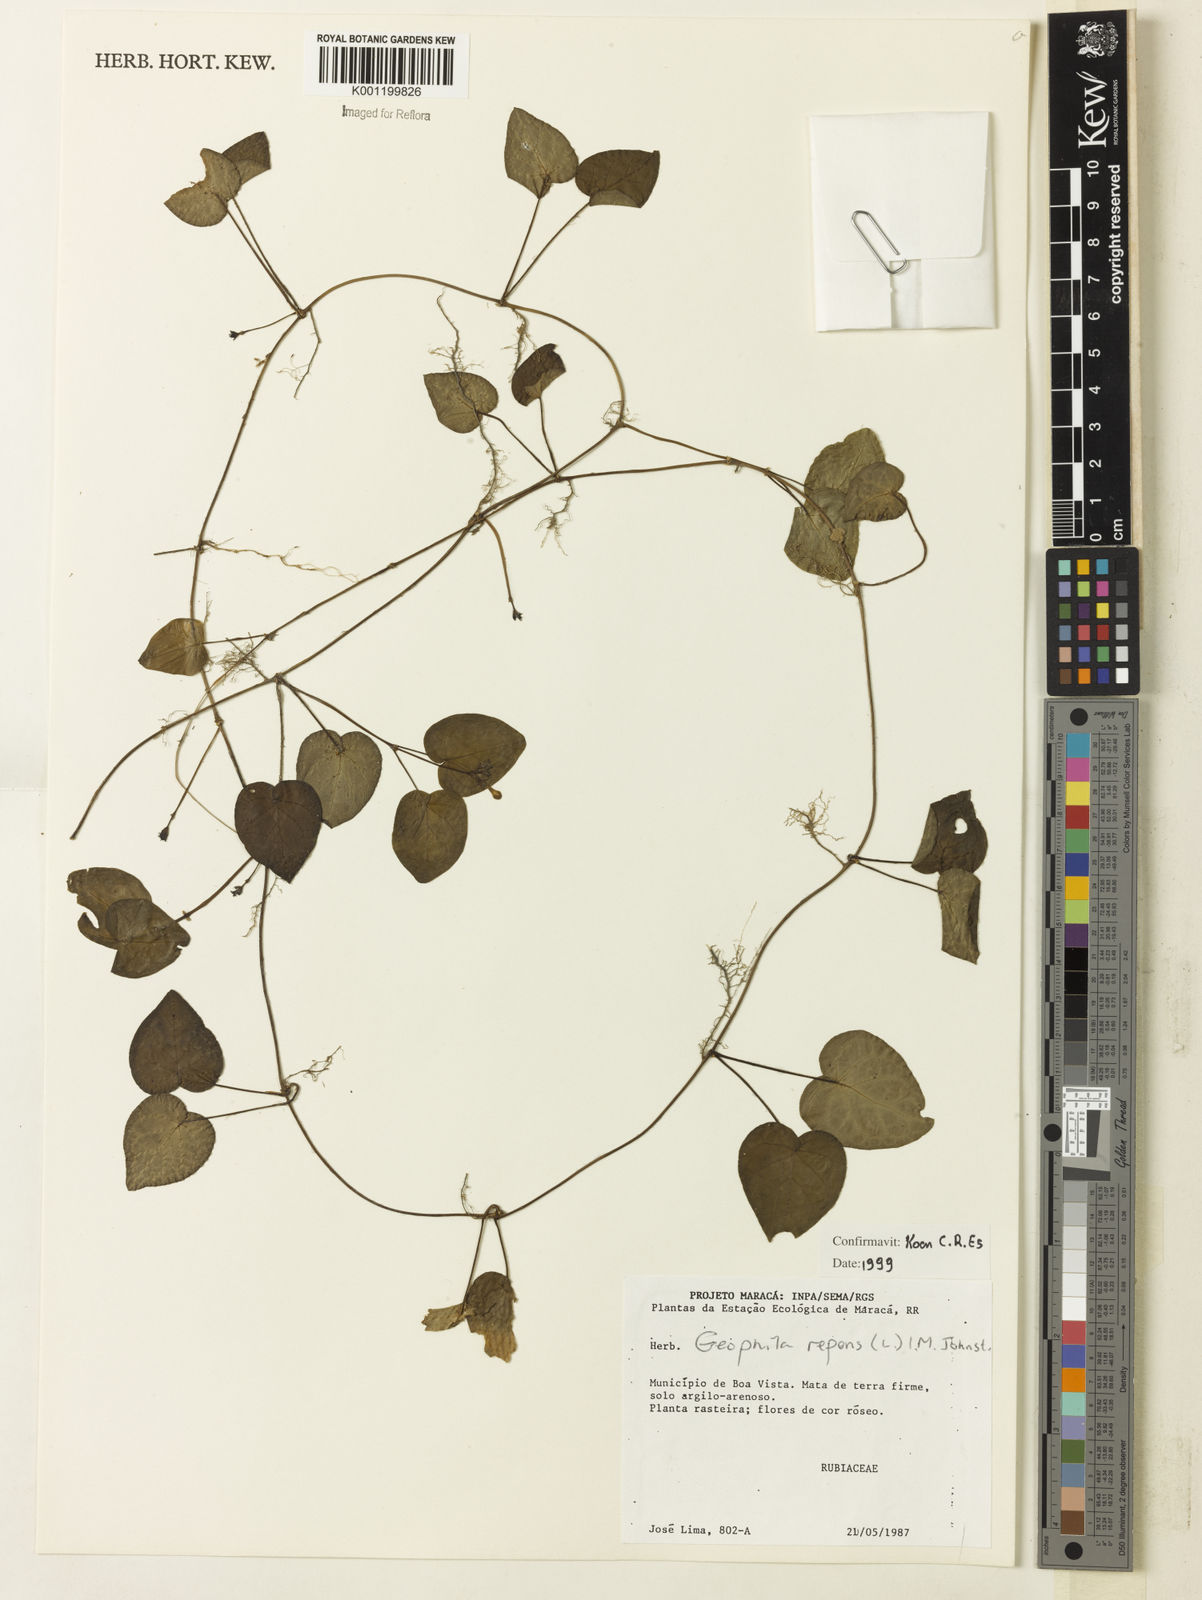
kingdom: Plantae
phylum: Tracheophyta
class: Magnoliopsida
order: Gentianales
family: Rubiaceae
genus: Geophila
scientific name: Geophila repens
